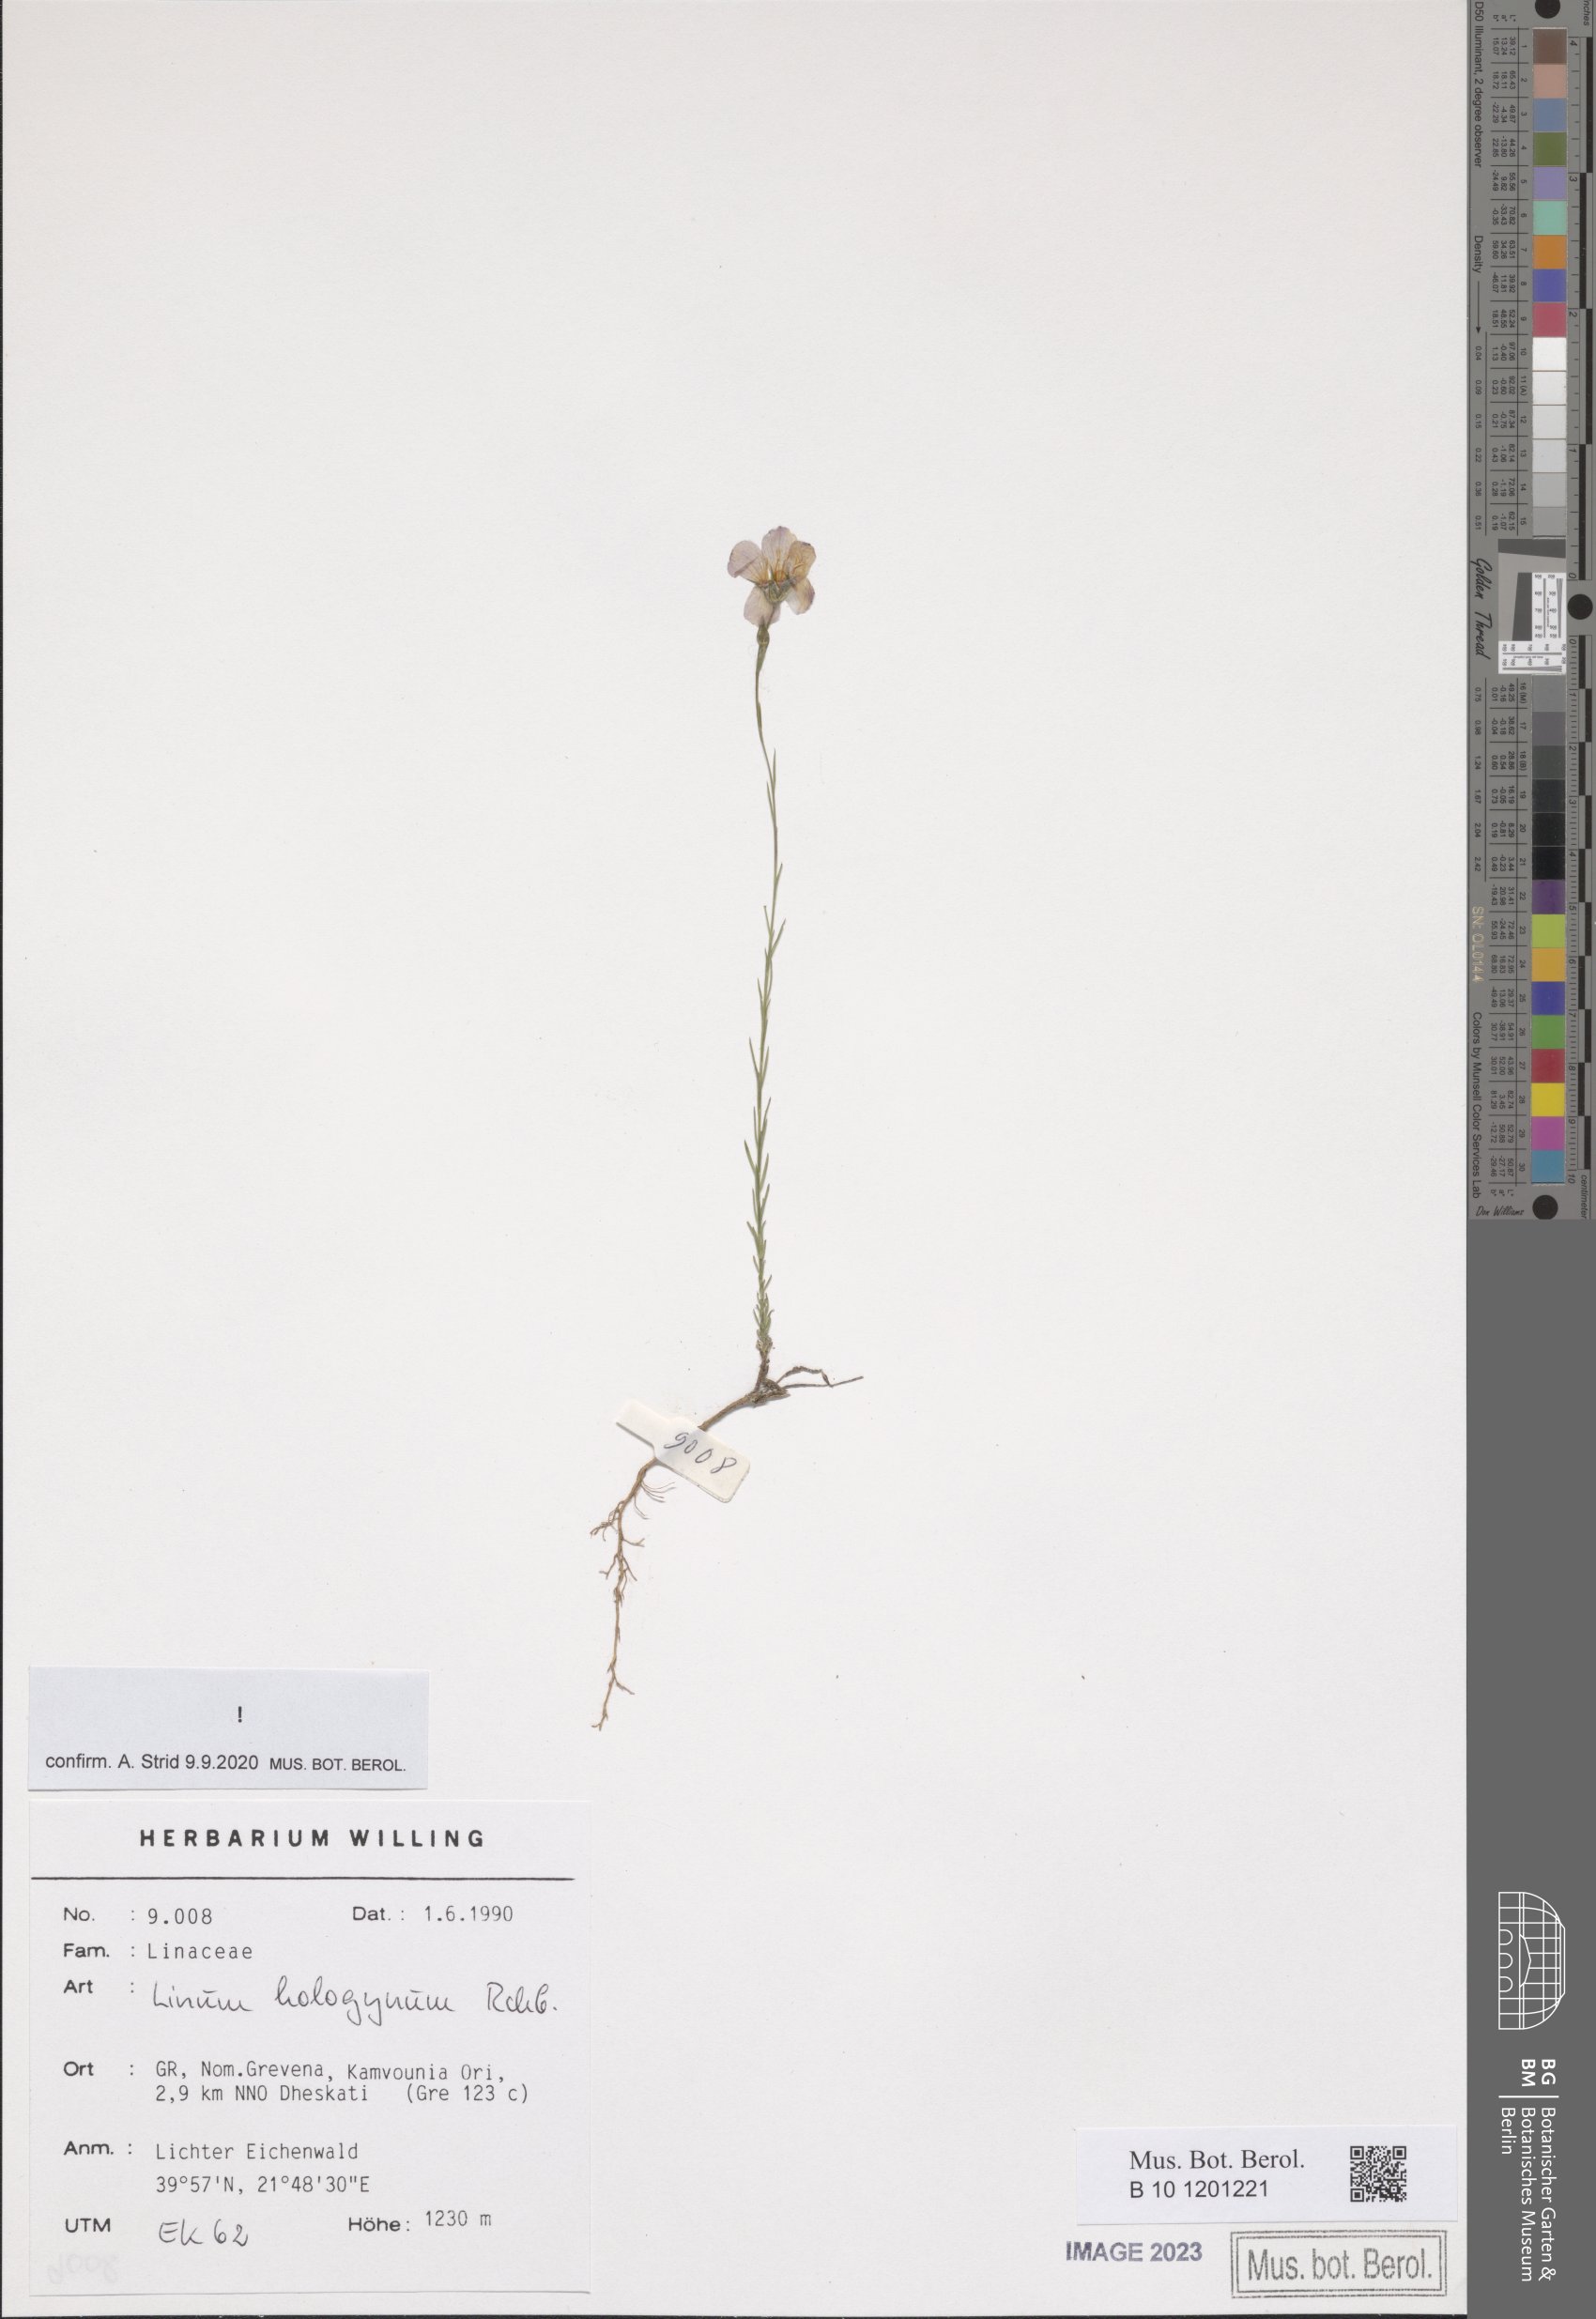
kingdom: Plantae
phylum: Tracheophyta
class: Magnoliopsida
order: Malpighiales
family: Linaceae
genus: Linum
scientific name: Linum hologynum
